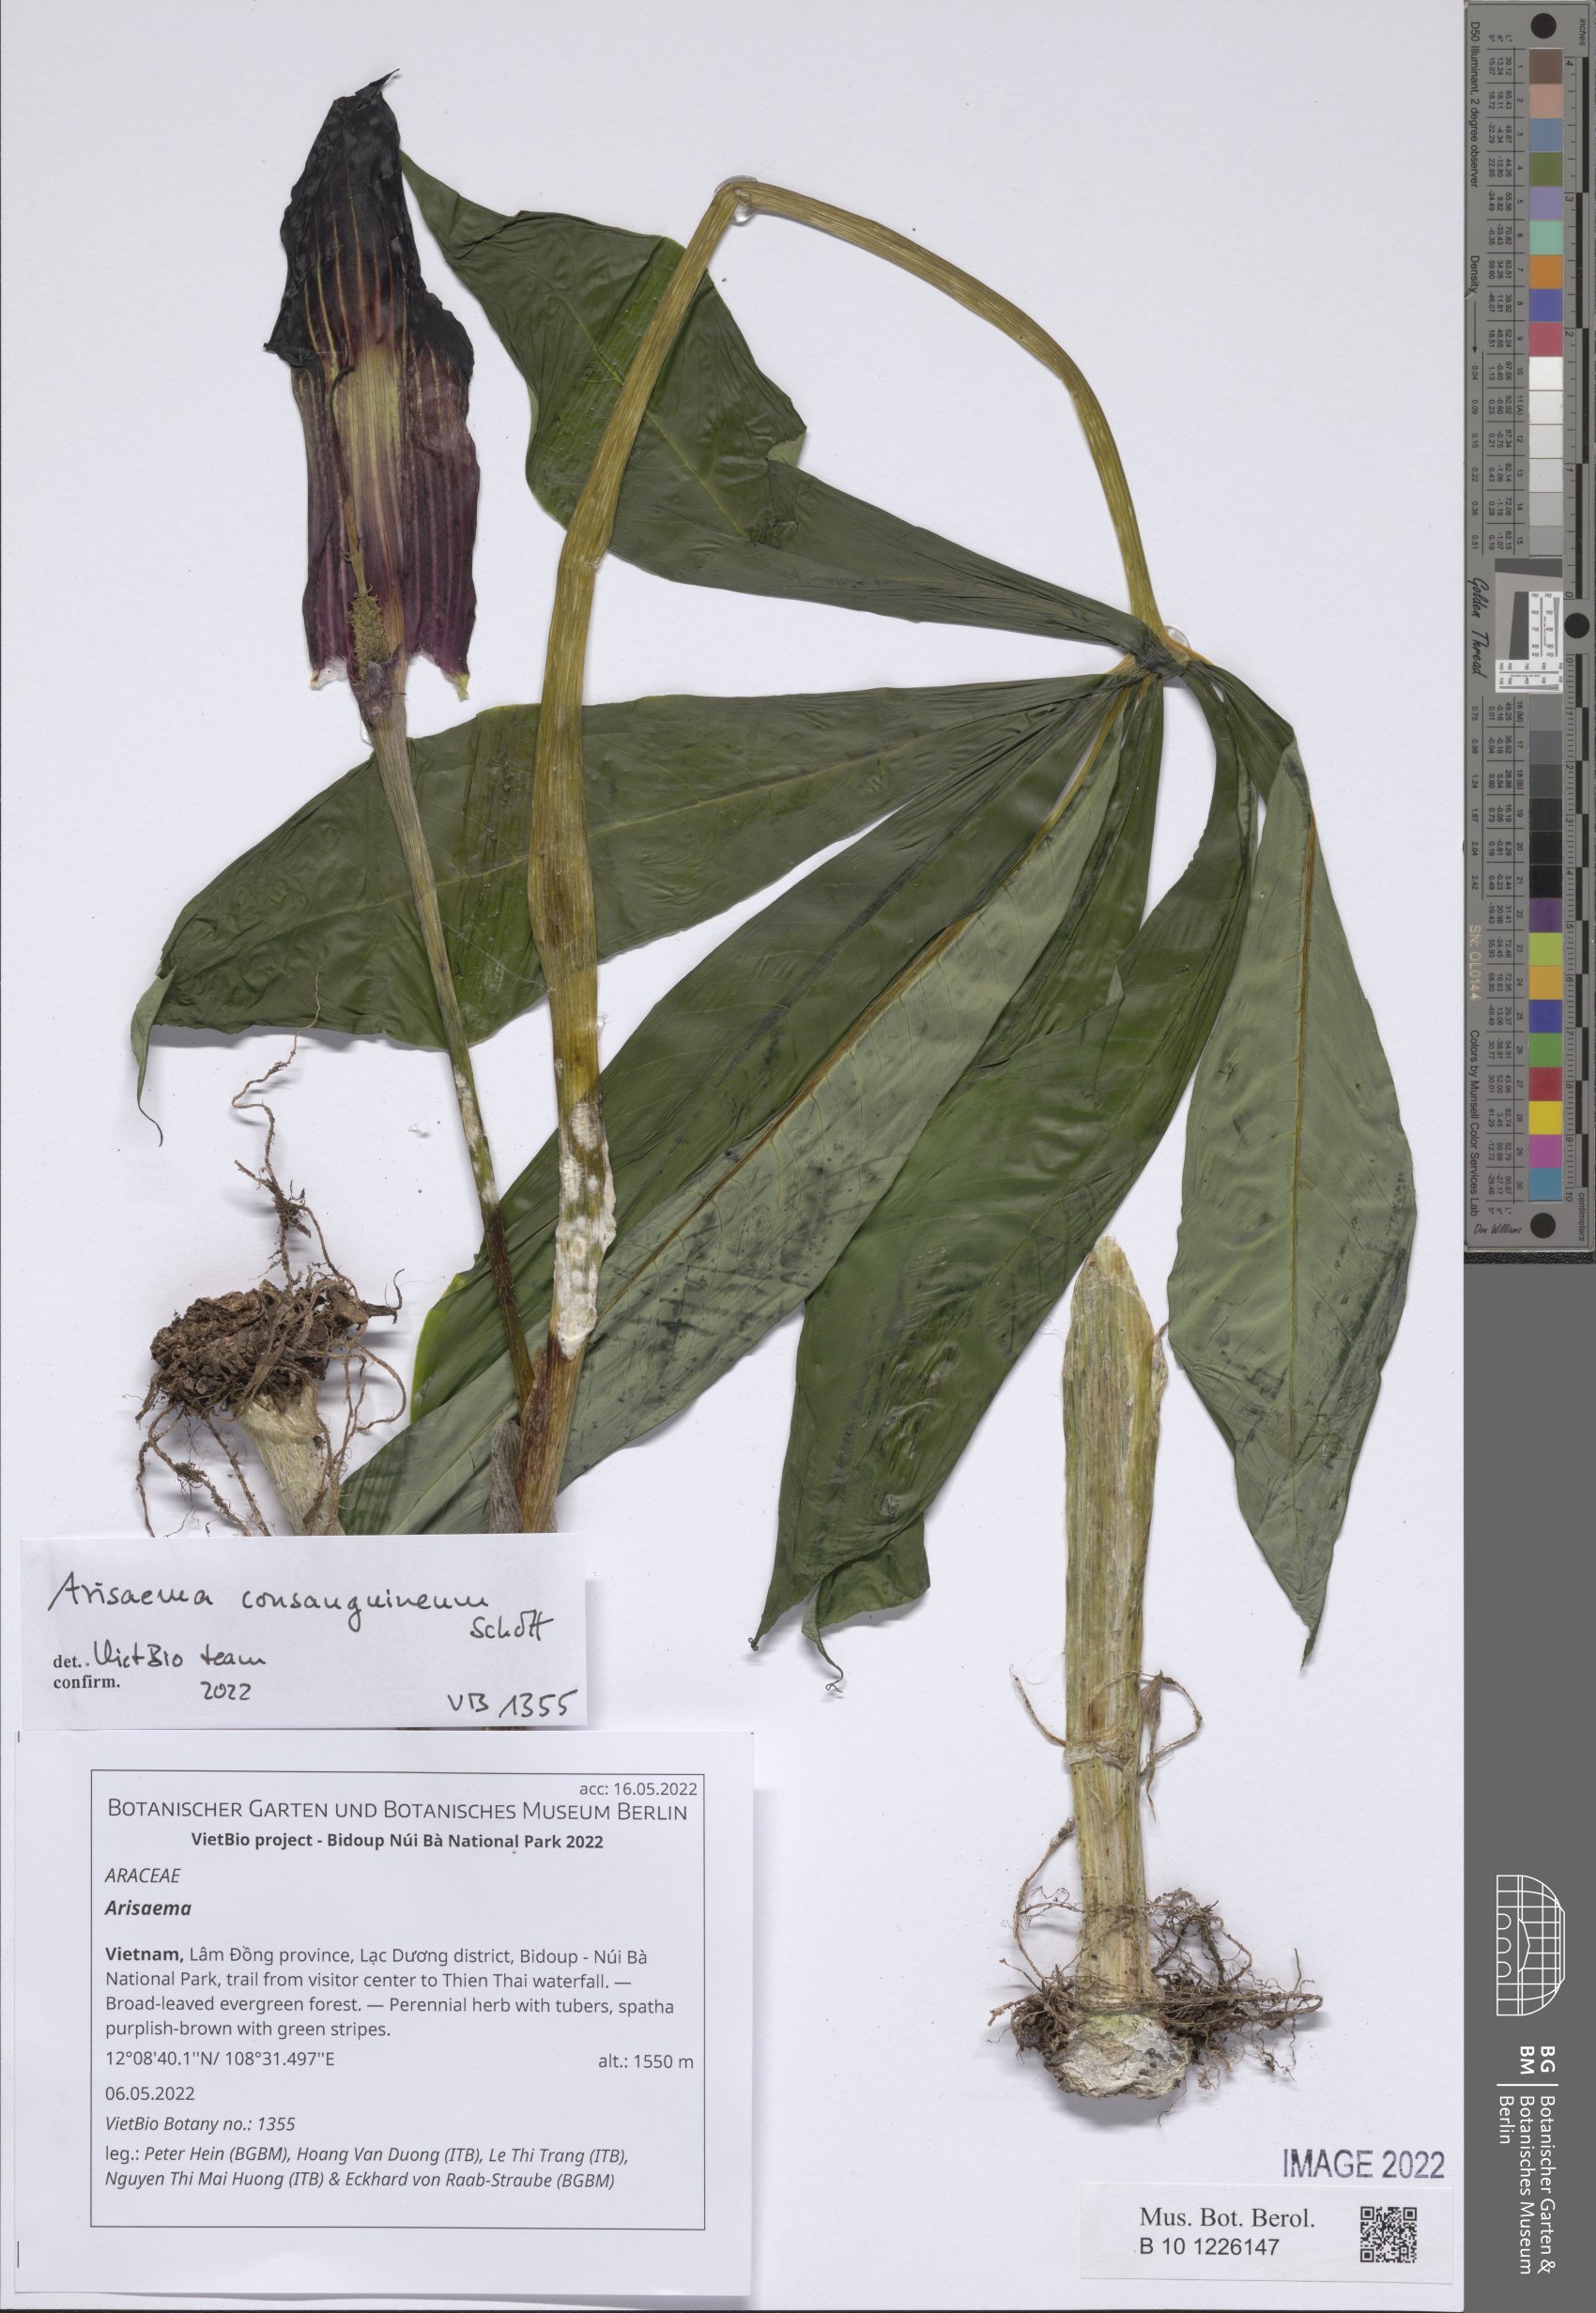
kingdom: Plantae
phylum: Tracheophyta
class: Liliopsida
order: Alismatales
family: Araceae
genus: Arisaema
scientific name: Arisaema
